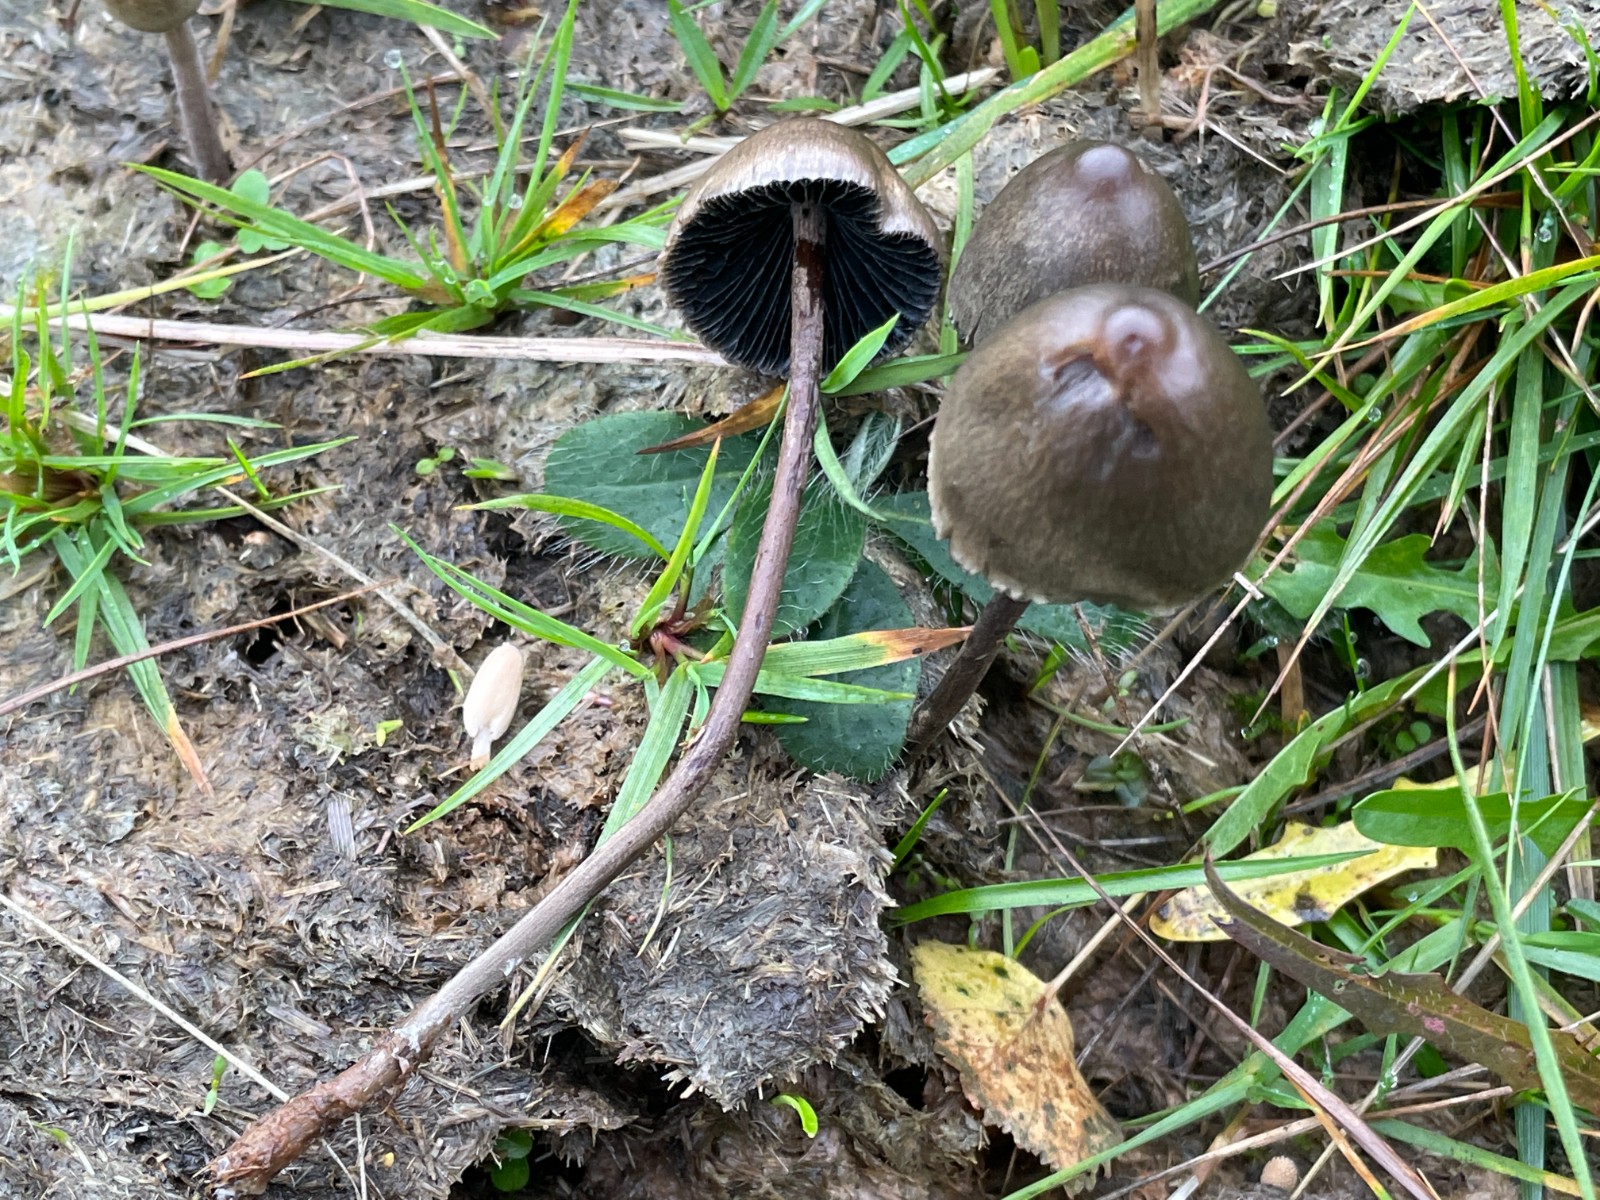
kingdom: Fungi
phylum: Basidiomycota
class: Agaricomycetes
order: Agaricales
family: Bolbitiaceae
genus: Panaeolus
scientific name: Panaeolus
